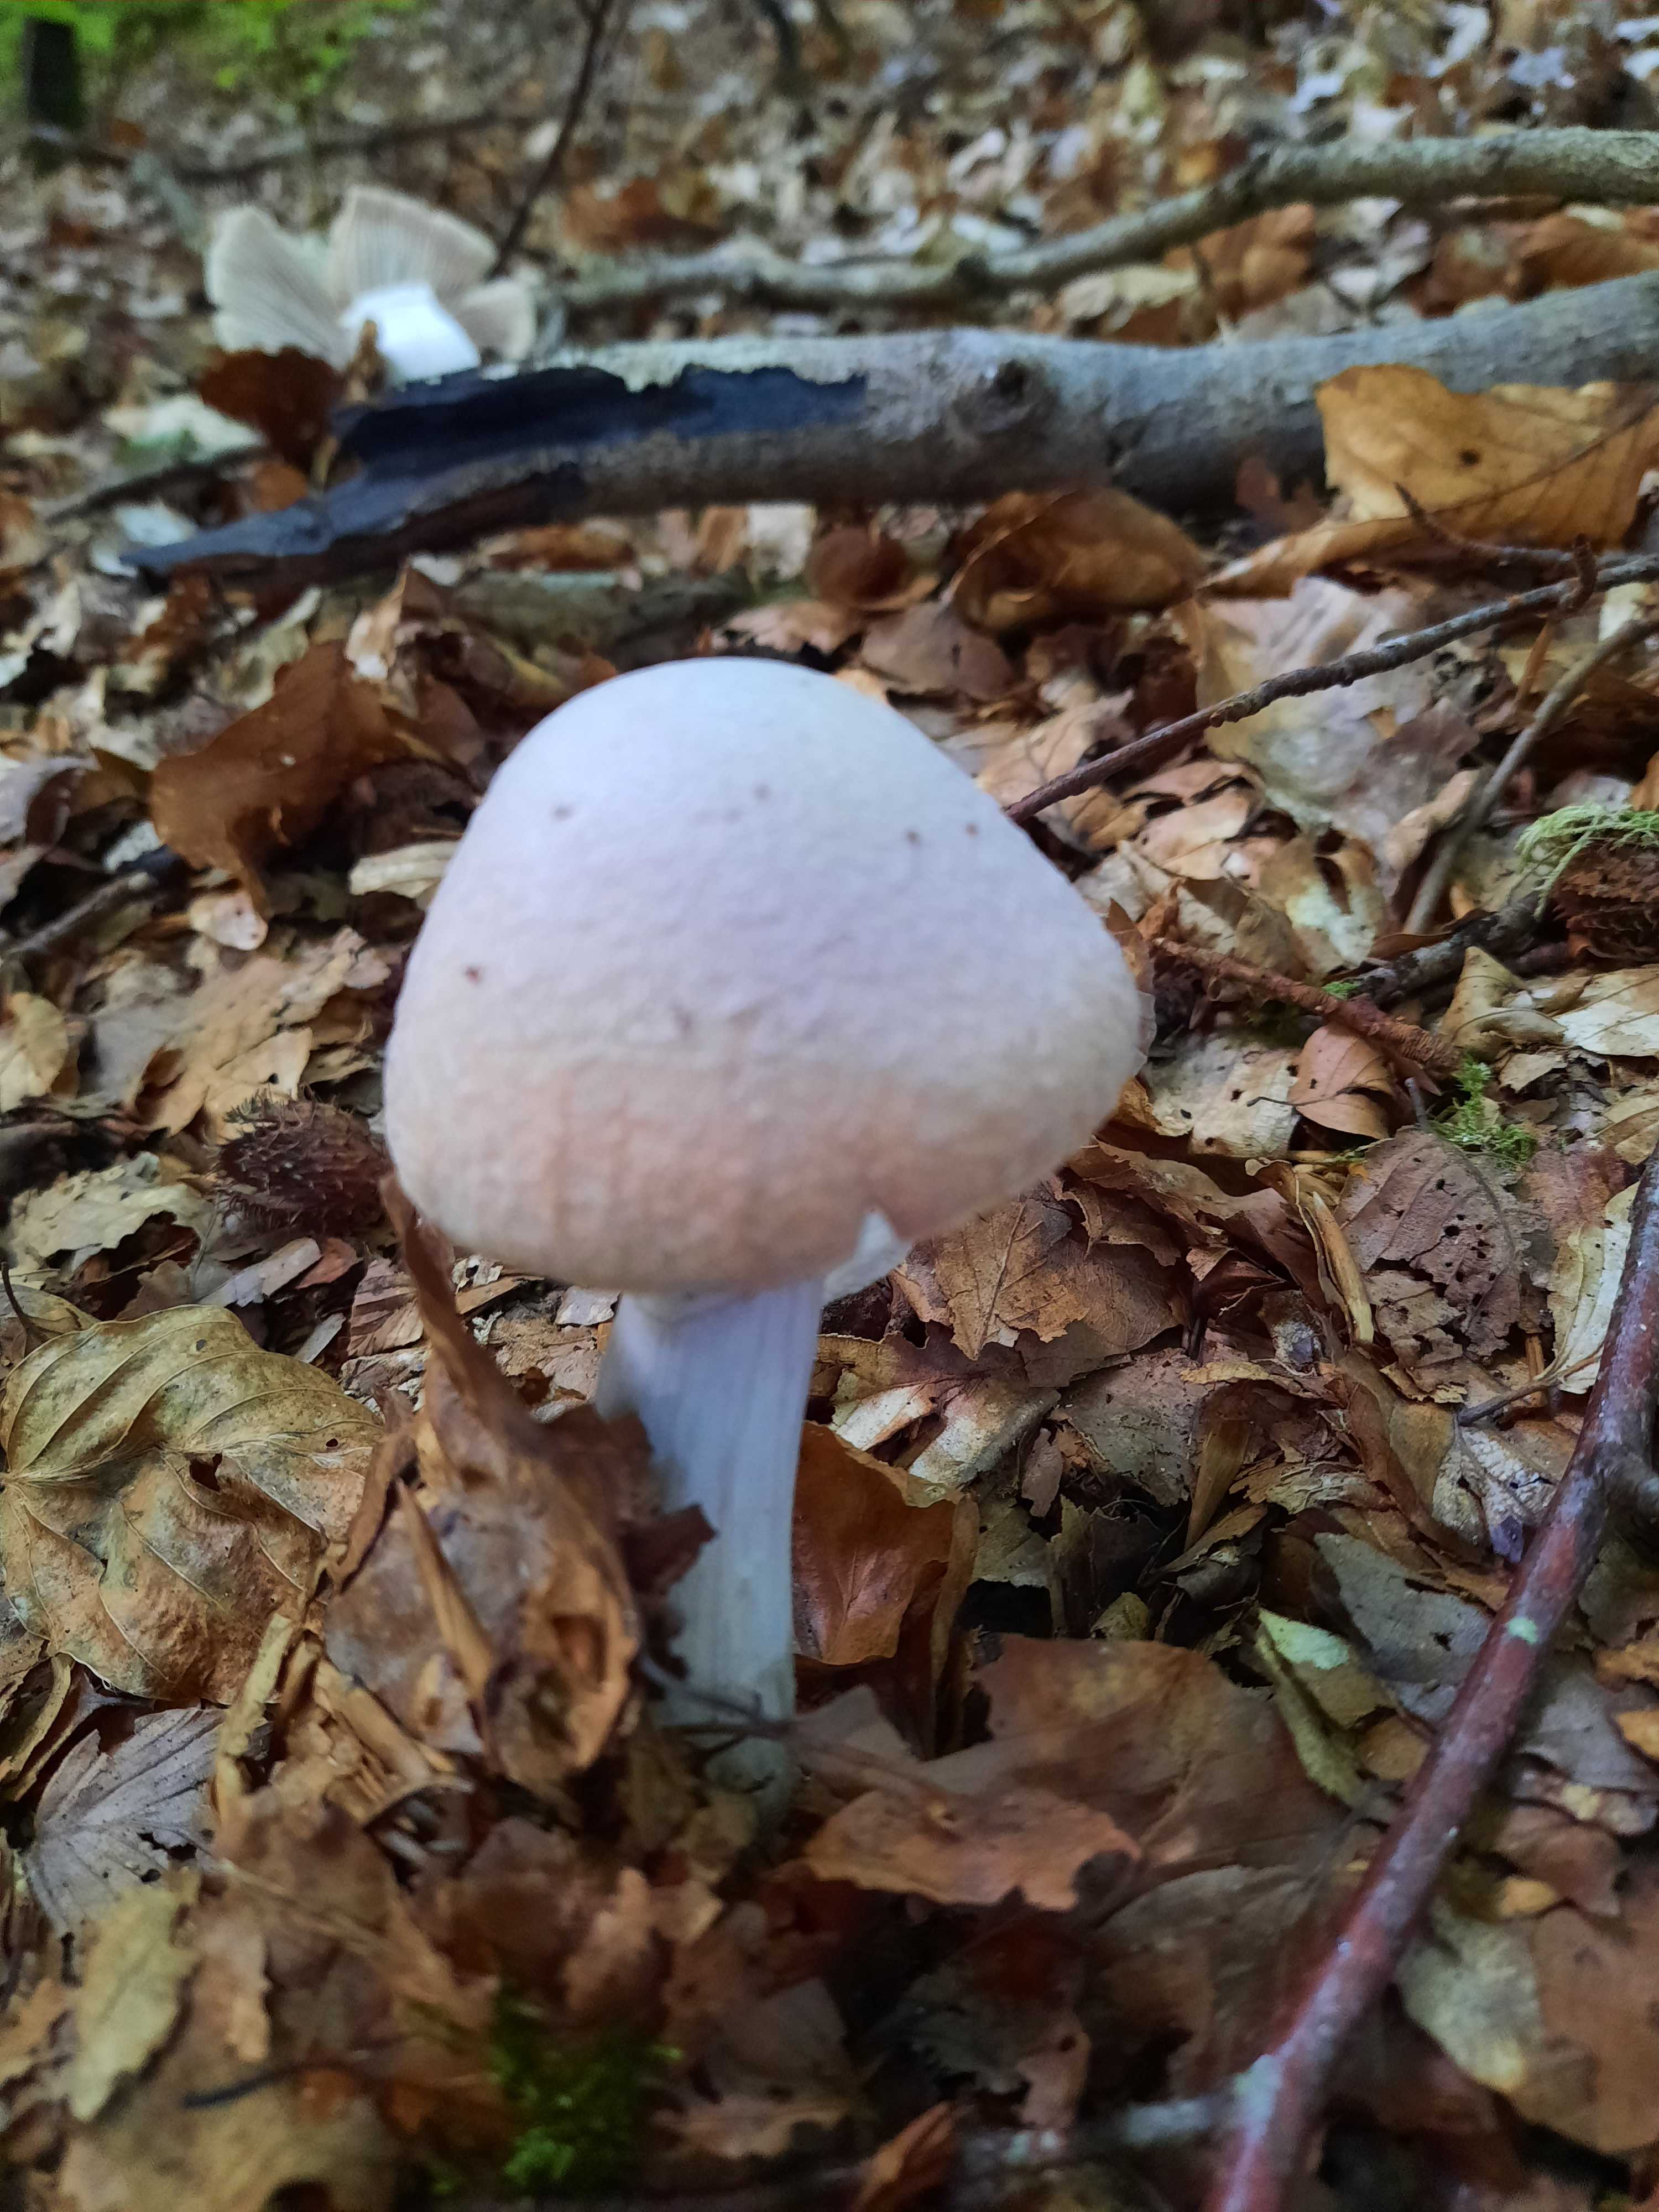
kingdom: Fungi
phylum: Basidiomycota
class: Agaricomycetes
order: Agaricales
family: Cortinariaceae
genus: Cortinarius
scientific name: Cortinarius caperatus
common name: klidhat
